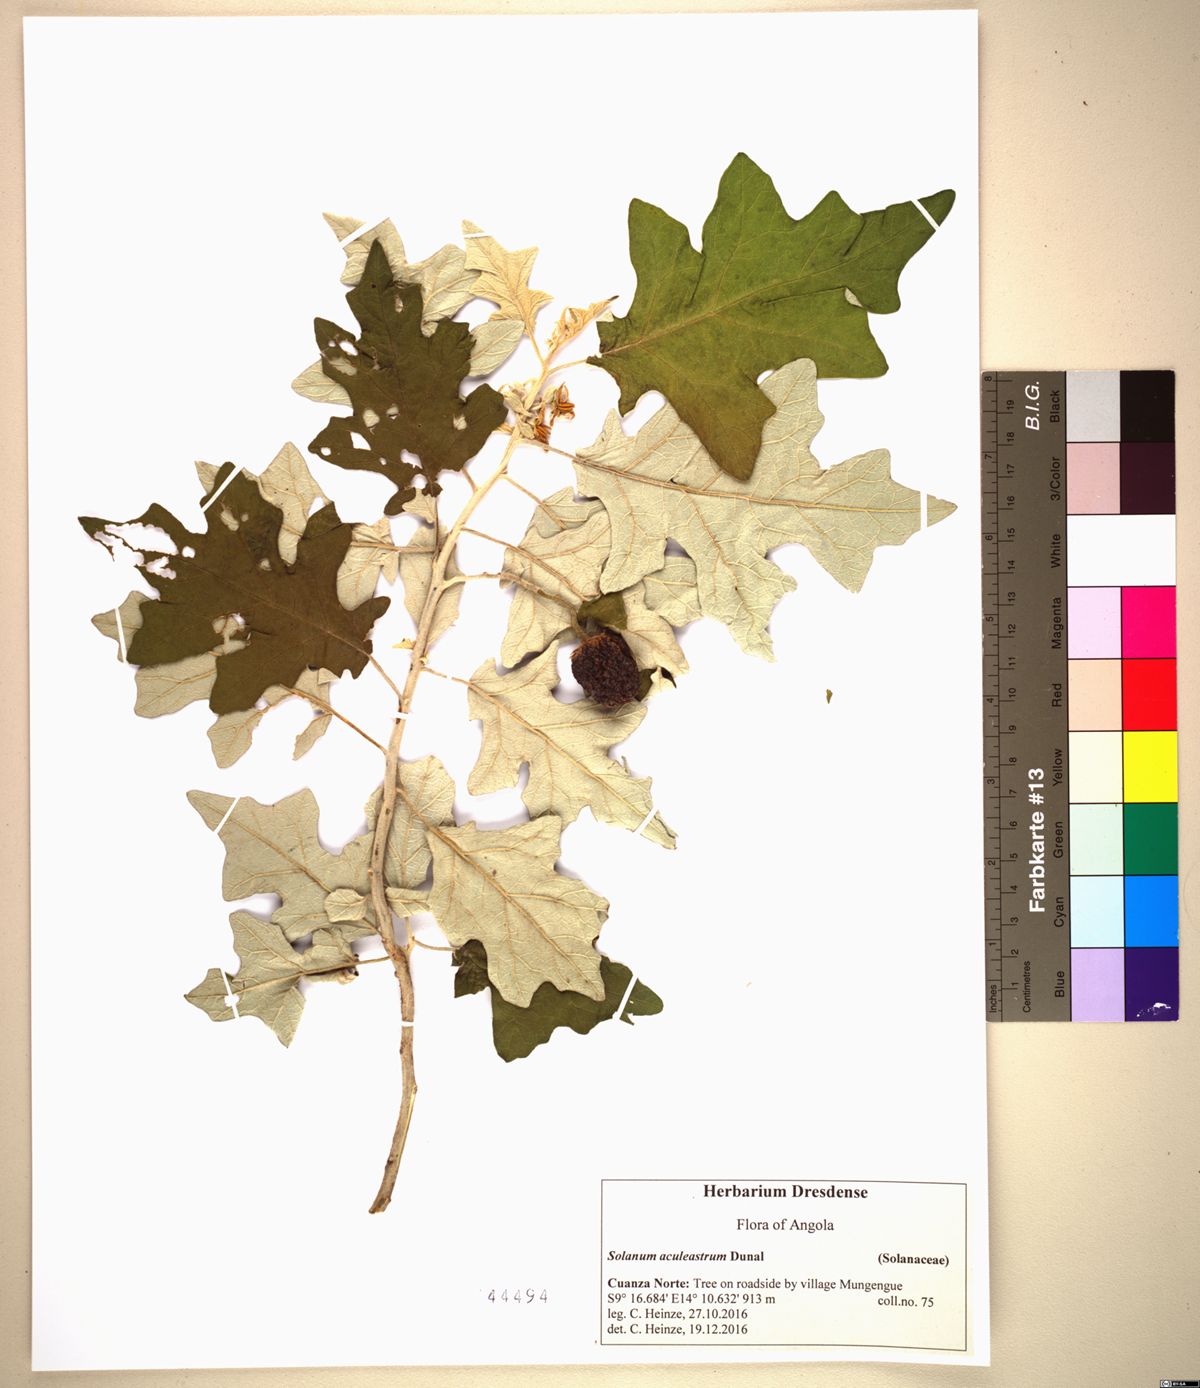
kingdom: Plantae
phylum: Tracheophyta
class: Magnoliopsida
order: Solanales
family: Solanaceae
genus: Solanum
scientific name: Solanum aculeastrum
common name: Goat bitter-apple
